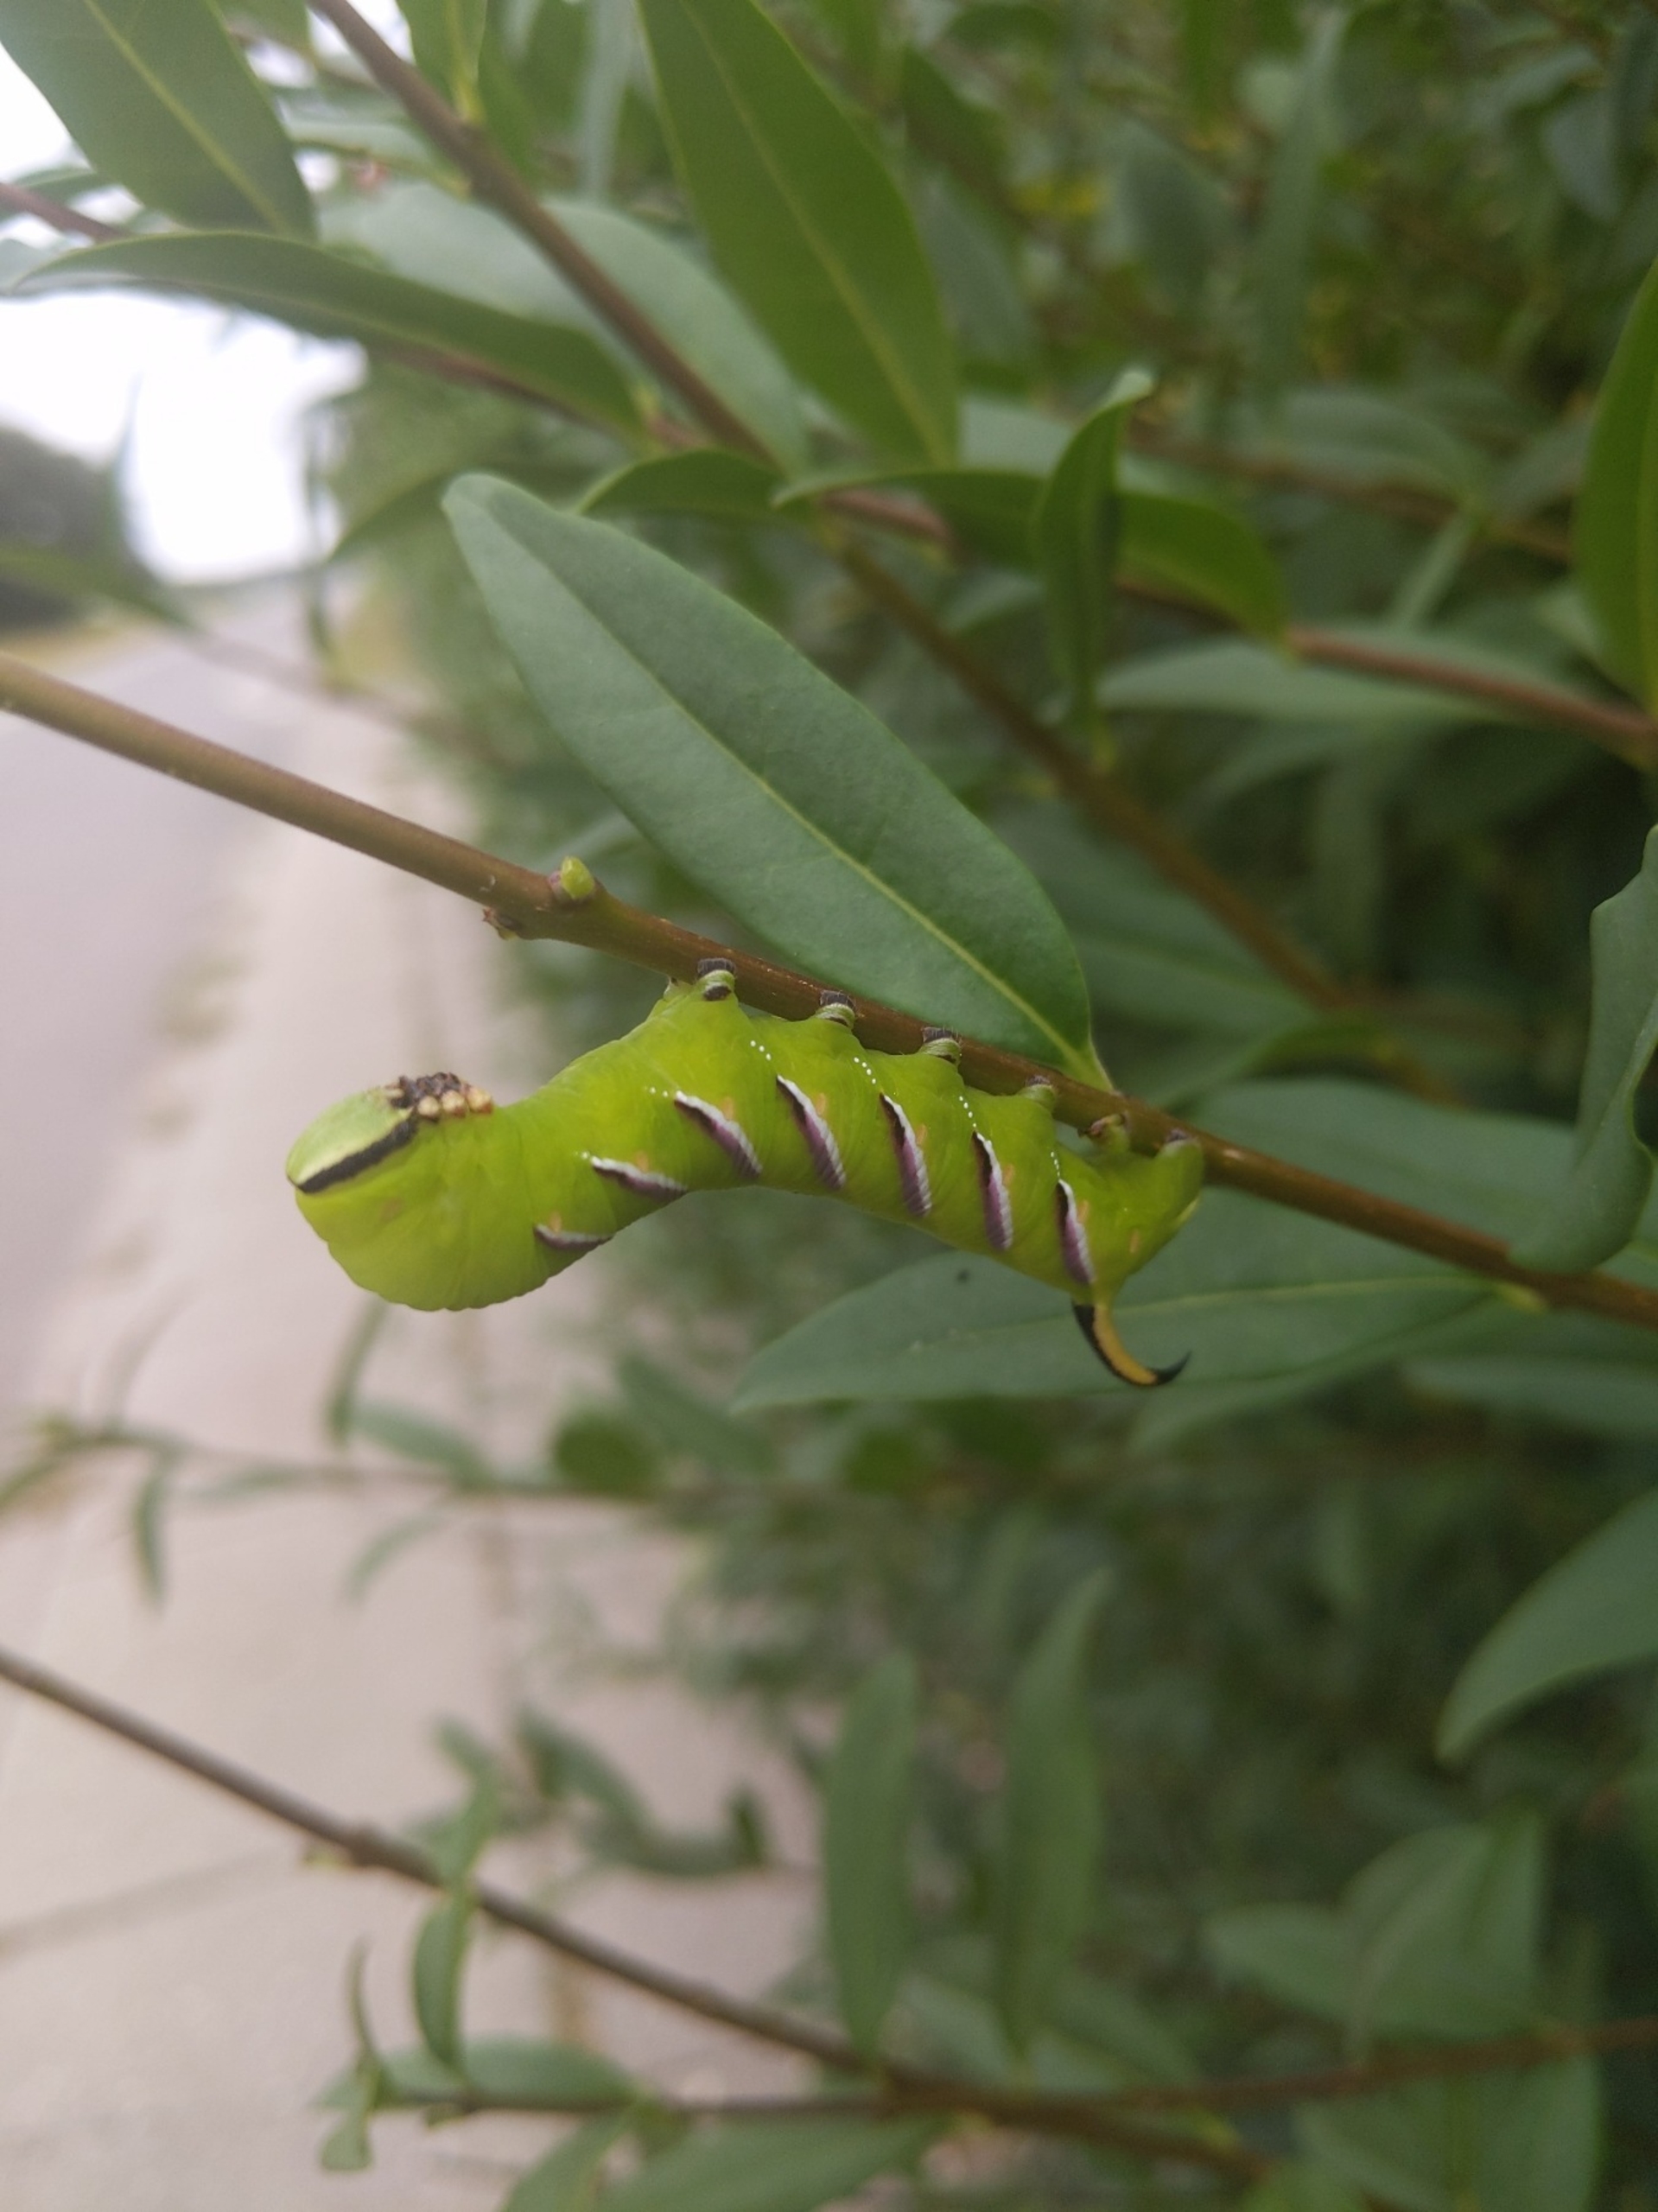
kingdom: Animalia
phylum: Arthropoda
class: Insecta
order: Lepidoptera
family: Sphingidae
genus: Sphinx
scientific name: Sphinx ligustri
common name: Ligustersværmer
